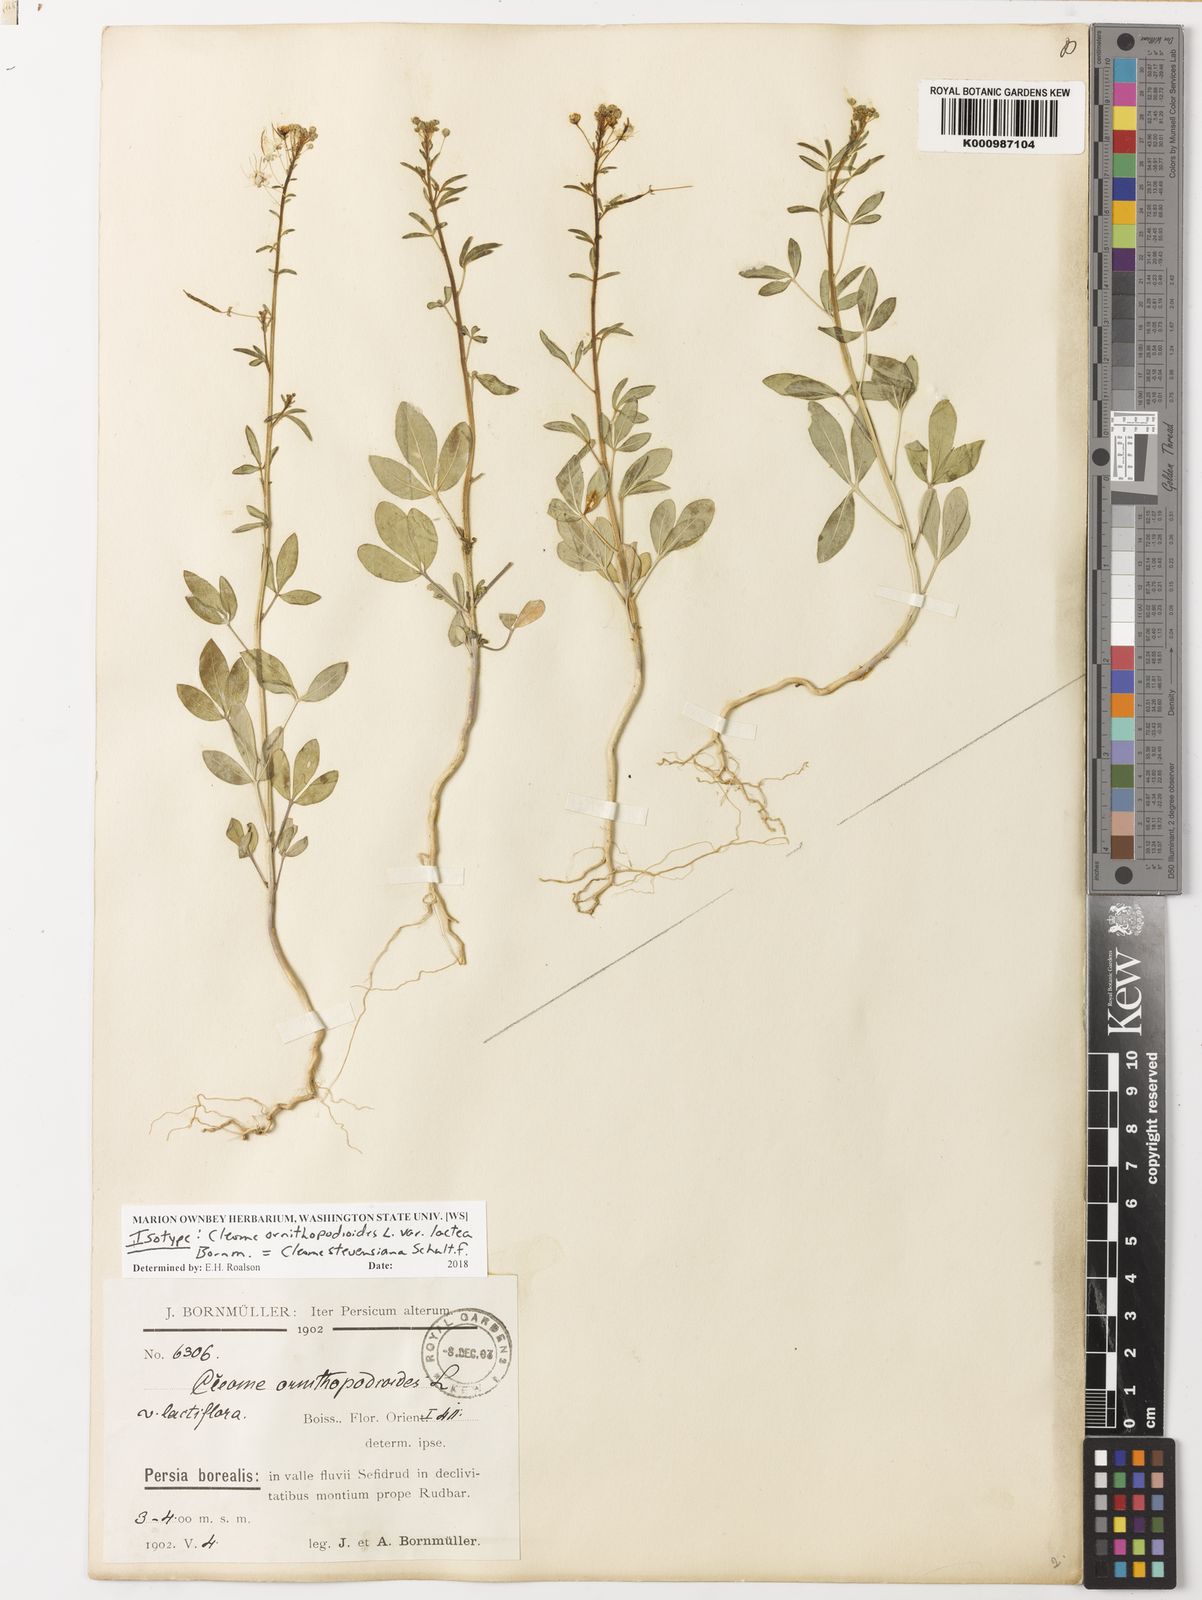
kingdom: Plantae
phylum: Tracheophyta
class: Magnoliopsida
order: Brassicales
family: Cleomaceae
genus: Cleome
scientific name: Cleome steveniana
